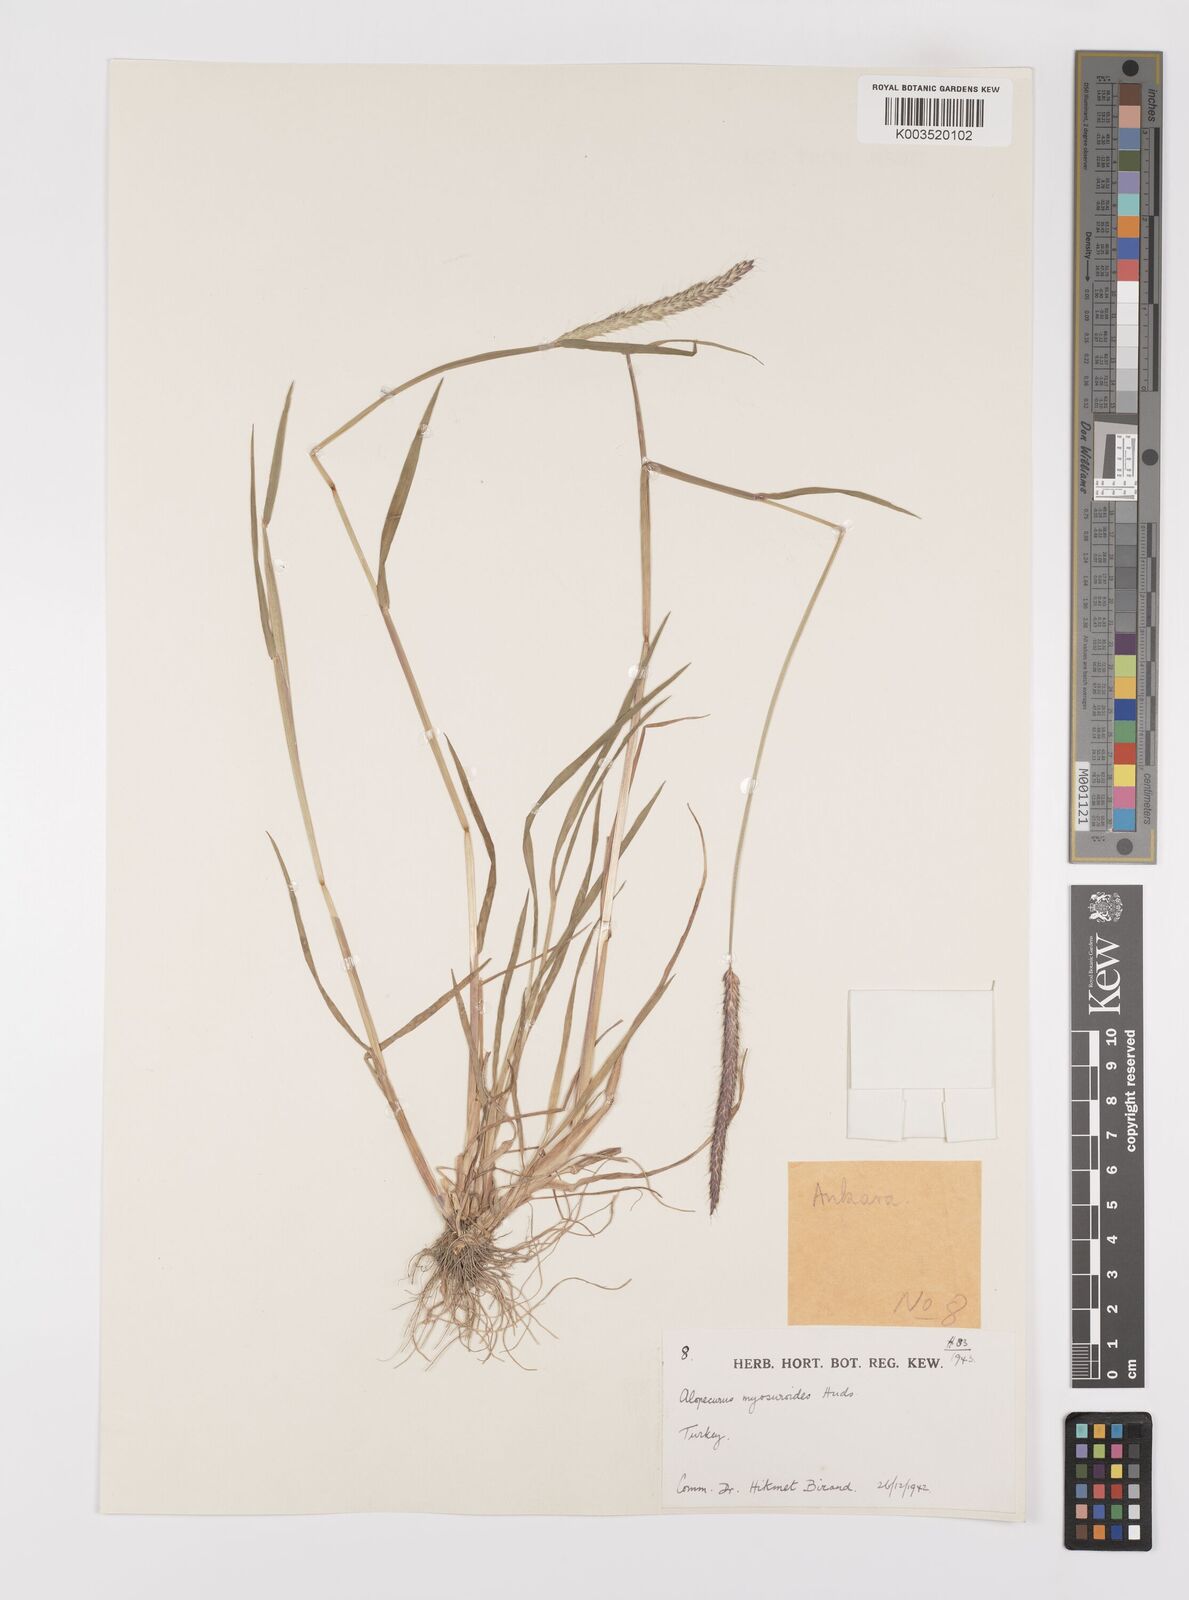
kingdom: Plantae
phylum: Tracheophyta
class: Liliopsida
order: Poales
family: Poaceae
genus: Alopecurus
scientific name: Alopecurus myosuroides
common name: Black-grass
